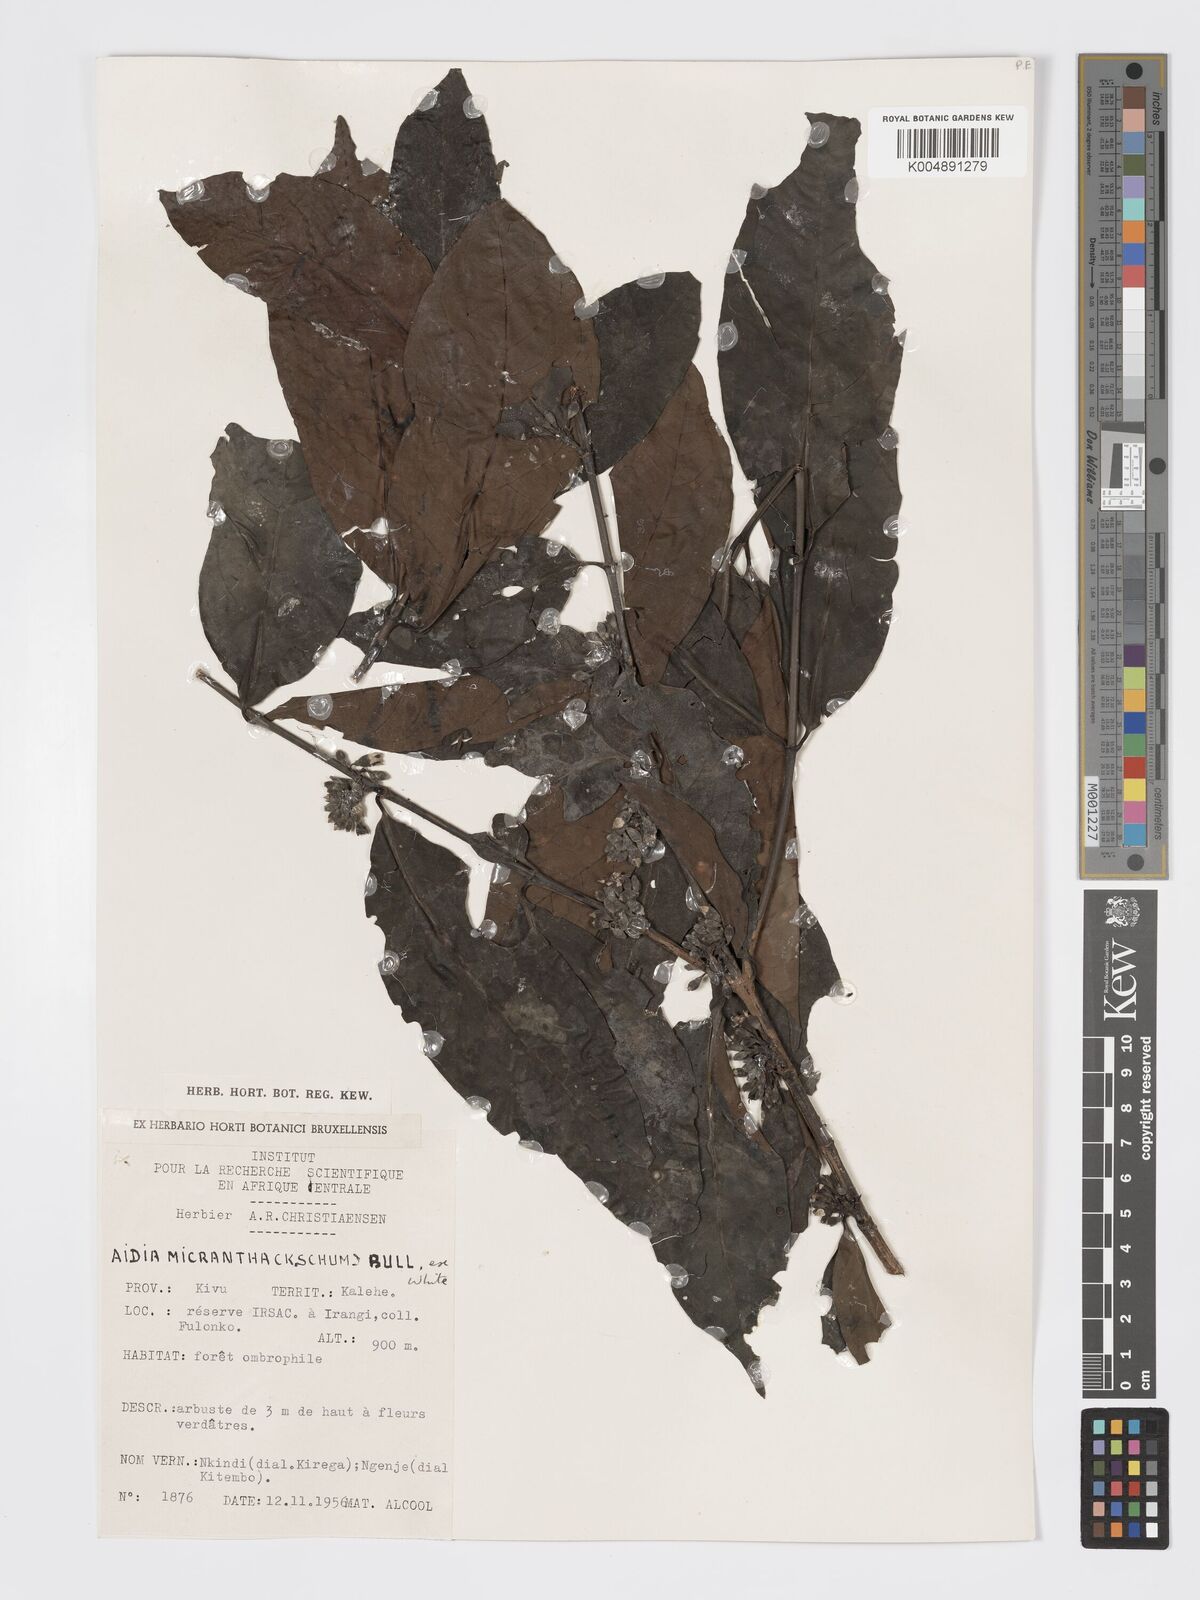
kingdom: Plantae
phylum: Tracheophyta
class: Magnoliopsida
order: Gentianales
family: Rubiaceae
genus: Aidia
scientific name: Aidia micrantha
